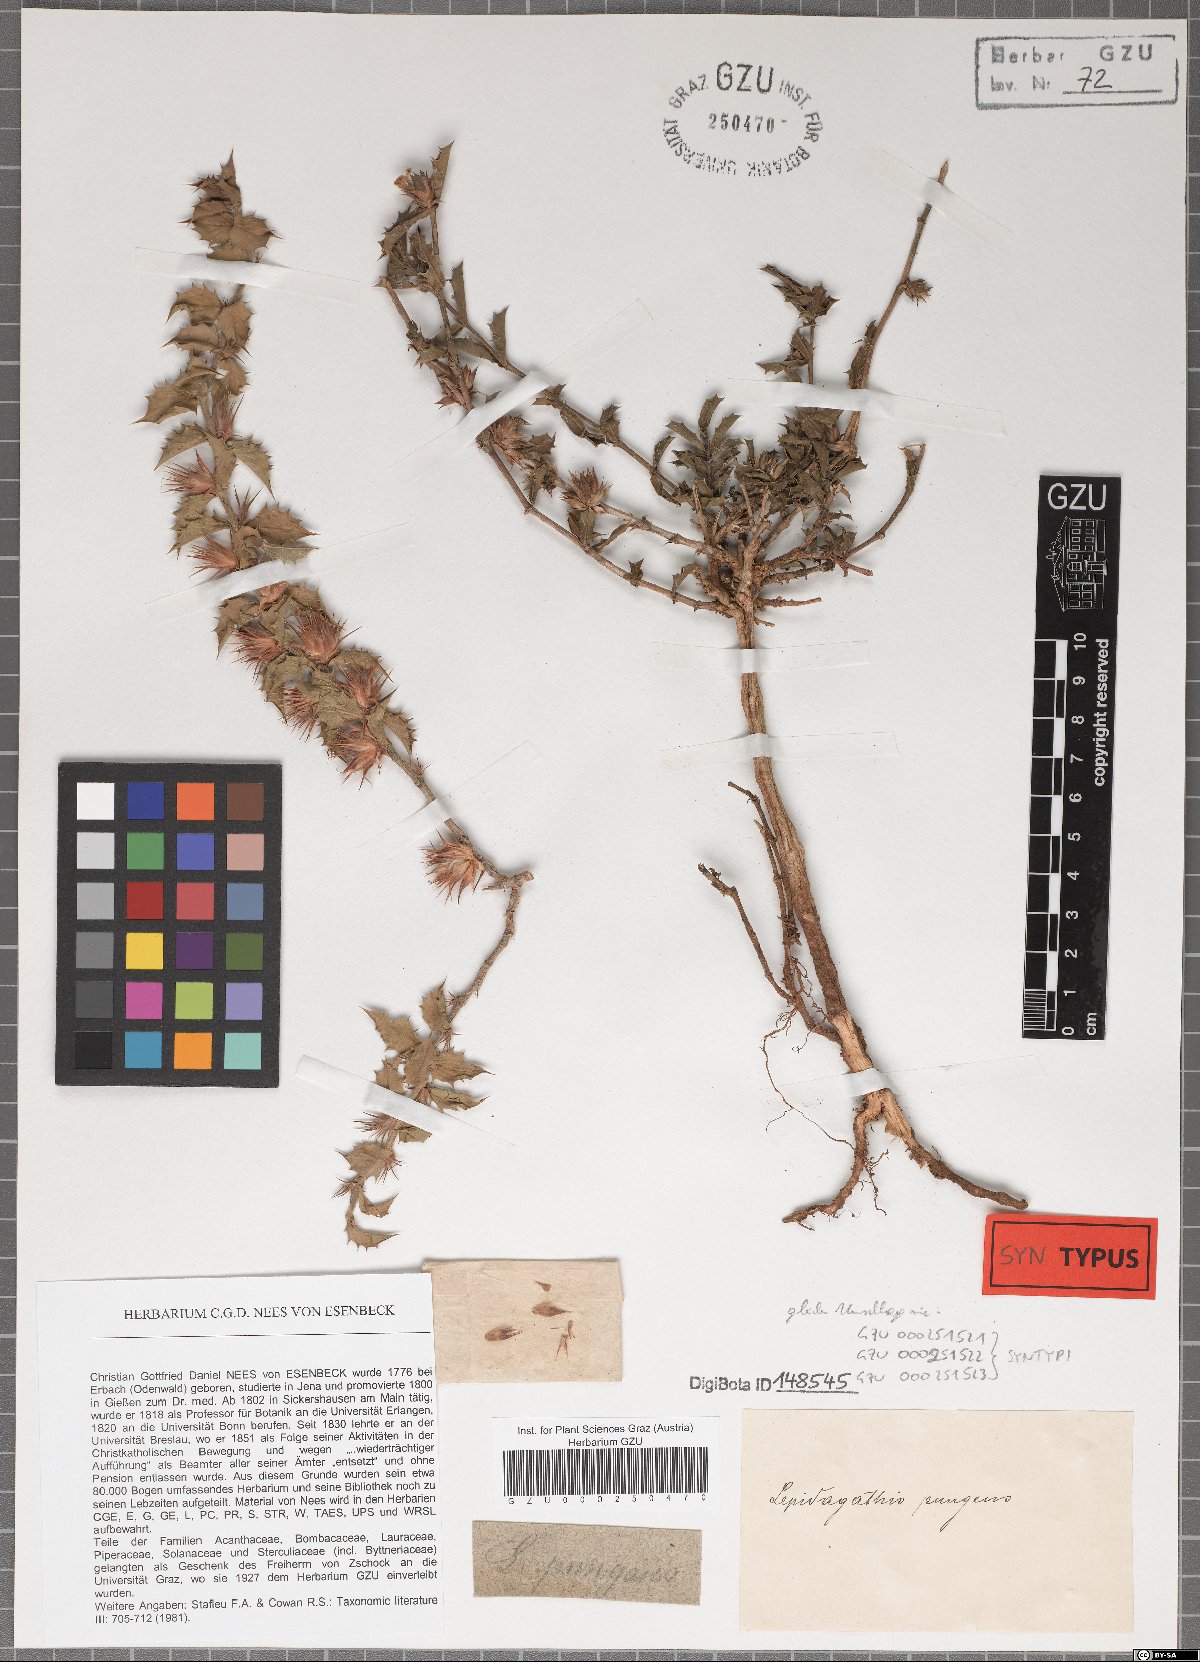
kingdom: Plantae
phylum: Tracheophyta
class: Magnoliopsida
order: Lamiales
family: Acanthaceae
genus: Lepidagathis
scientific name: Lepidagathis pungens
